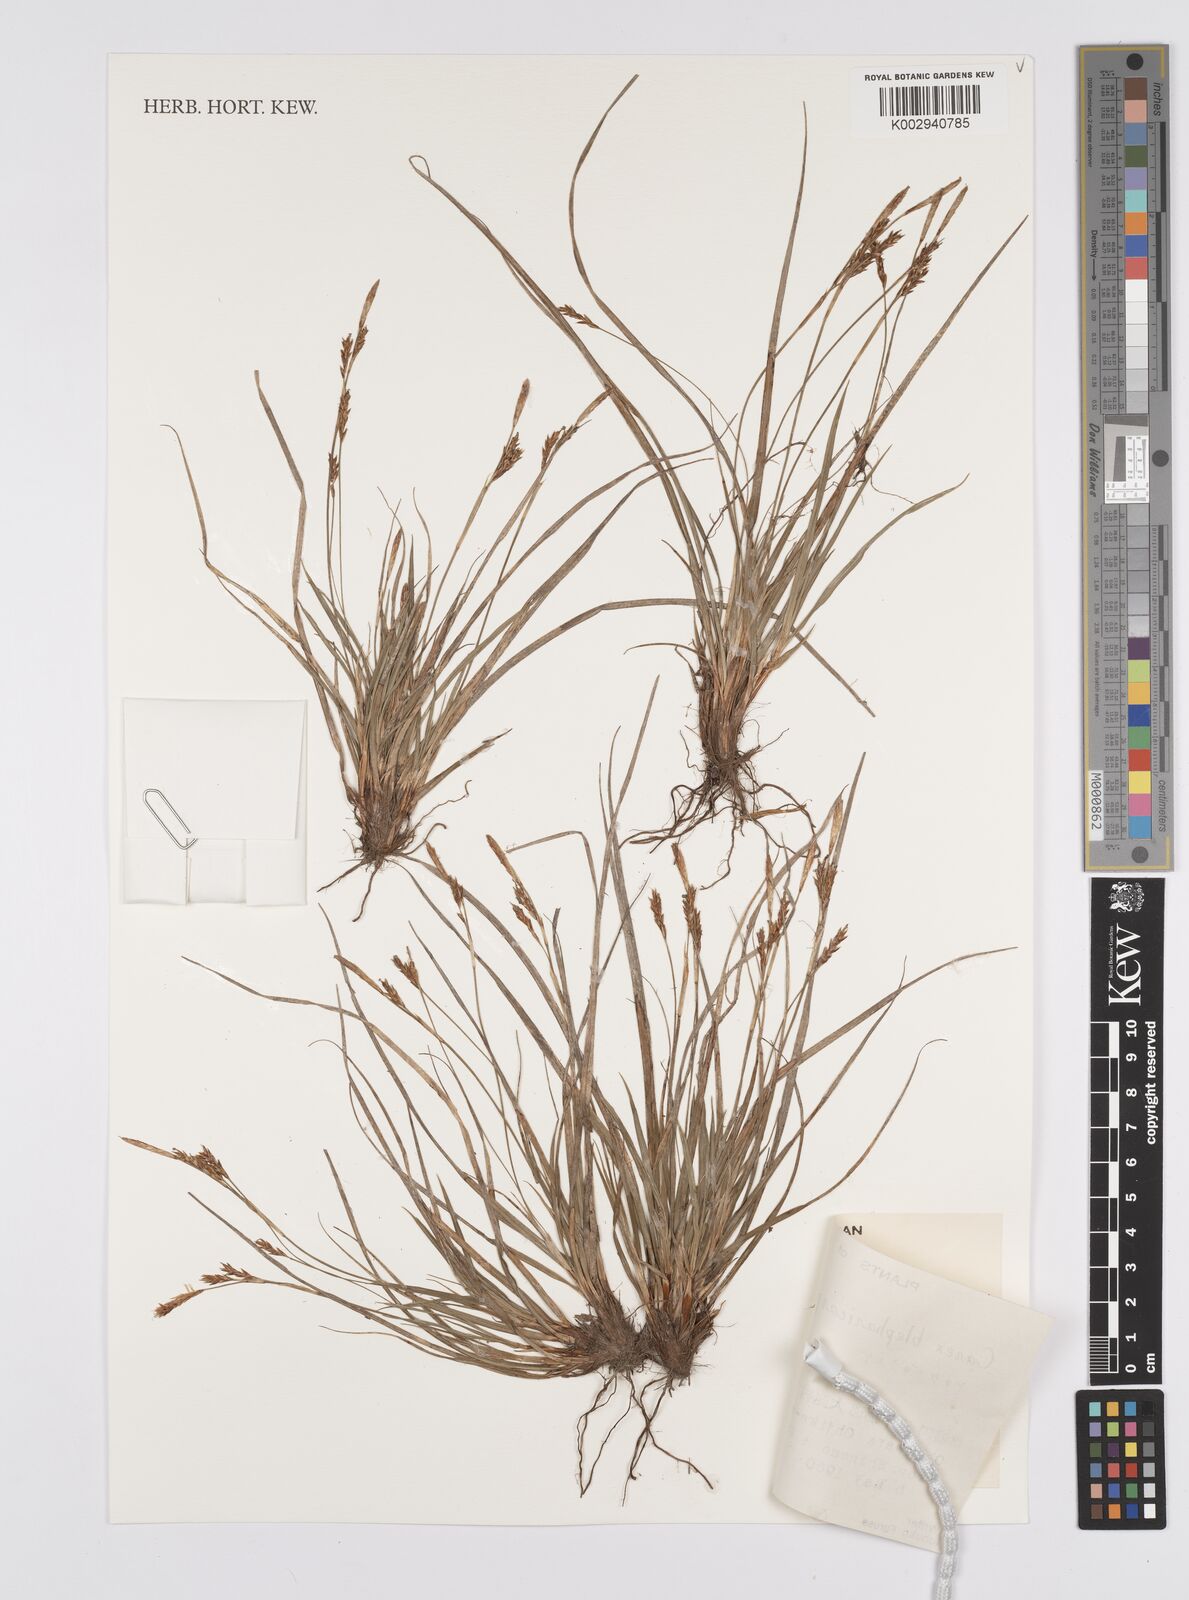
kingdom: Plantae
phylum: Tracheophyta
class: Liliopsida
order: Poales
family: Cyperaceae
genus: Carex
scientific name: Carex blepharicarpa
